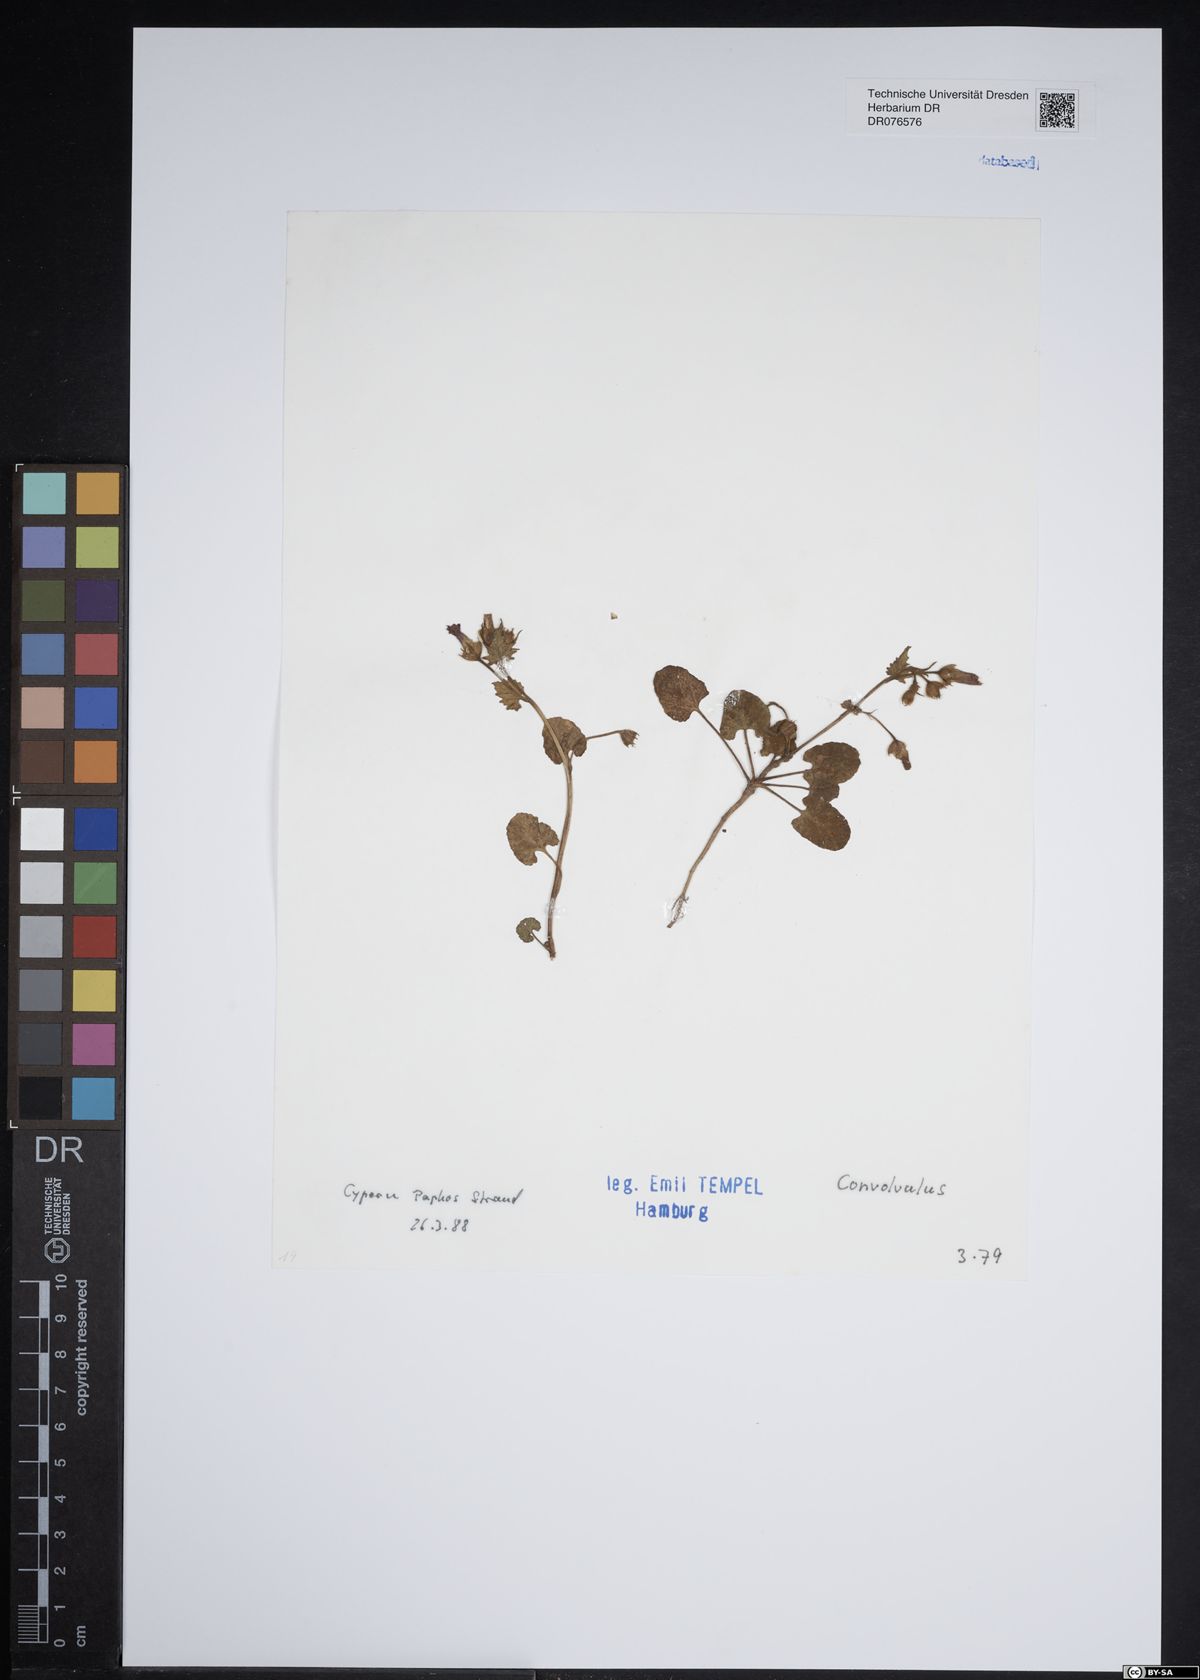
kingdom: Plantae
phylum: Tracheophyta
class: Magnoliopsida
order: Solanales
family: Convolvulaceae
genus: Convolvulus
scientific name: Convolvulus
